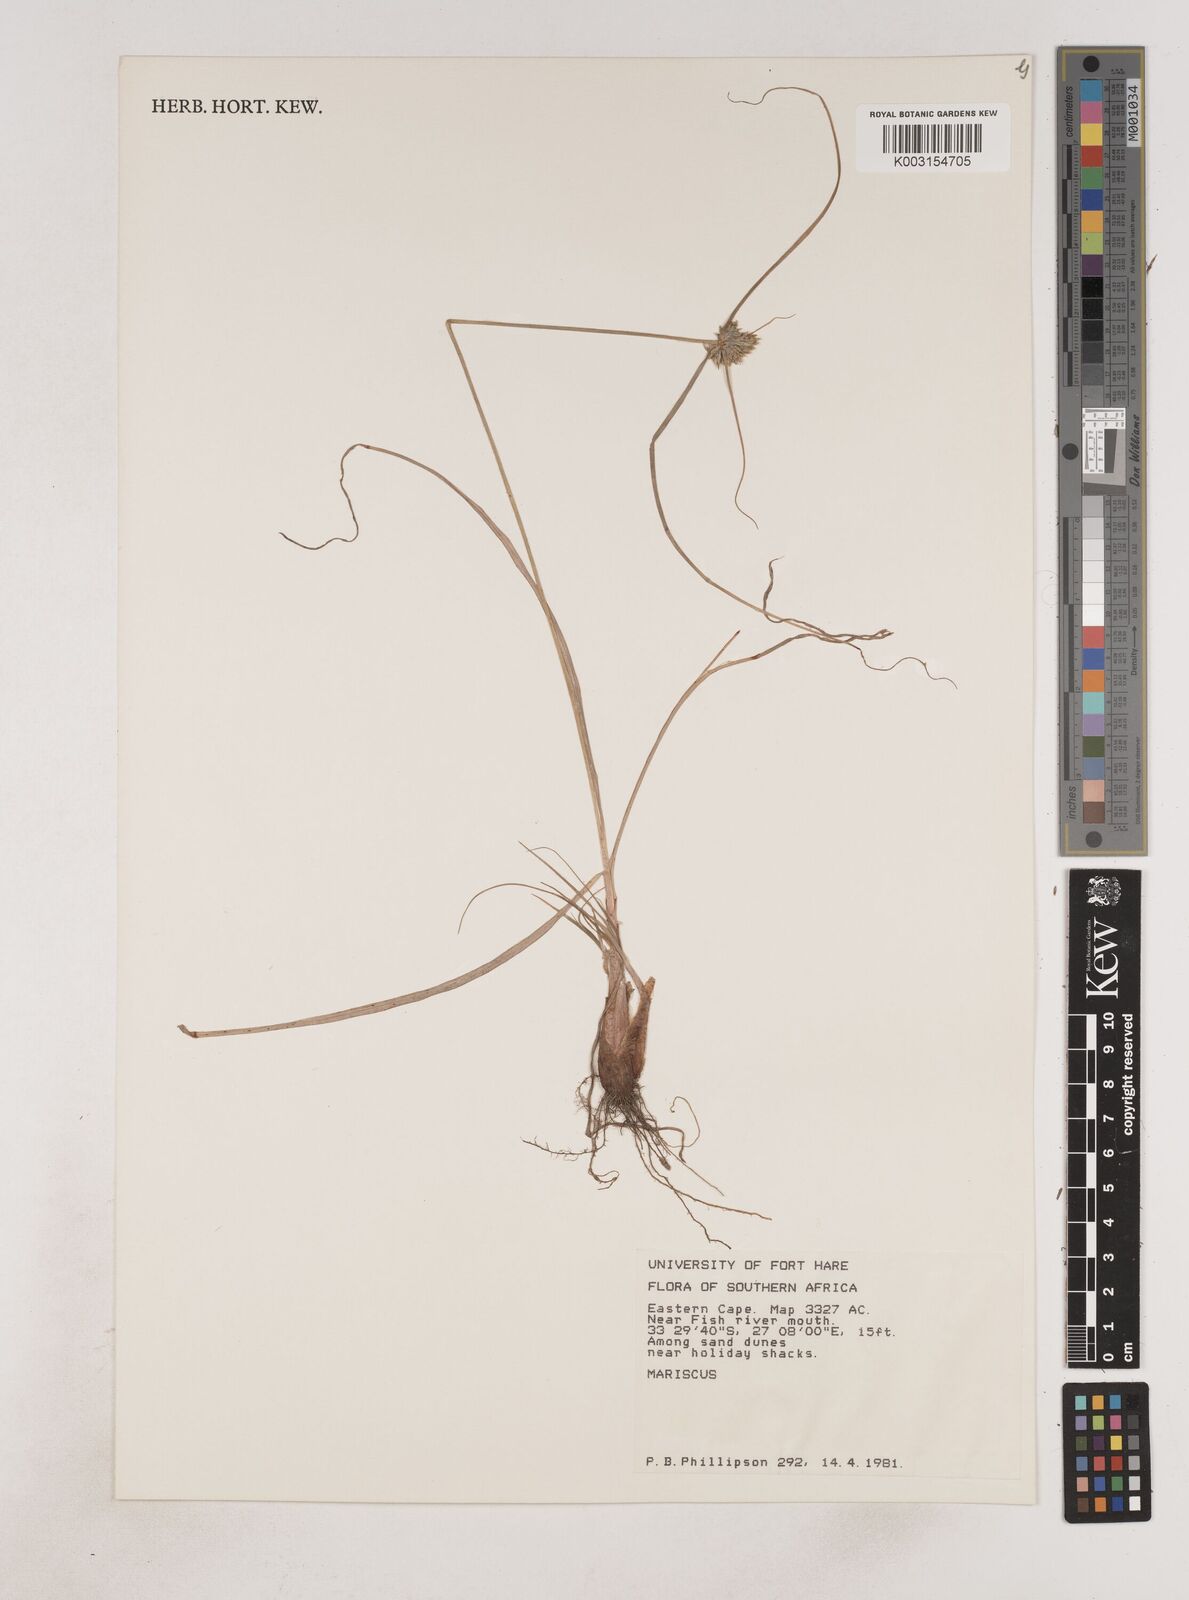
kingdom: Plantae
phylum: Tracheophyta
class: Liliopsida
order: Poales
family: Cyperaceae
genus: Cyperus
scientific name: Cyperus
